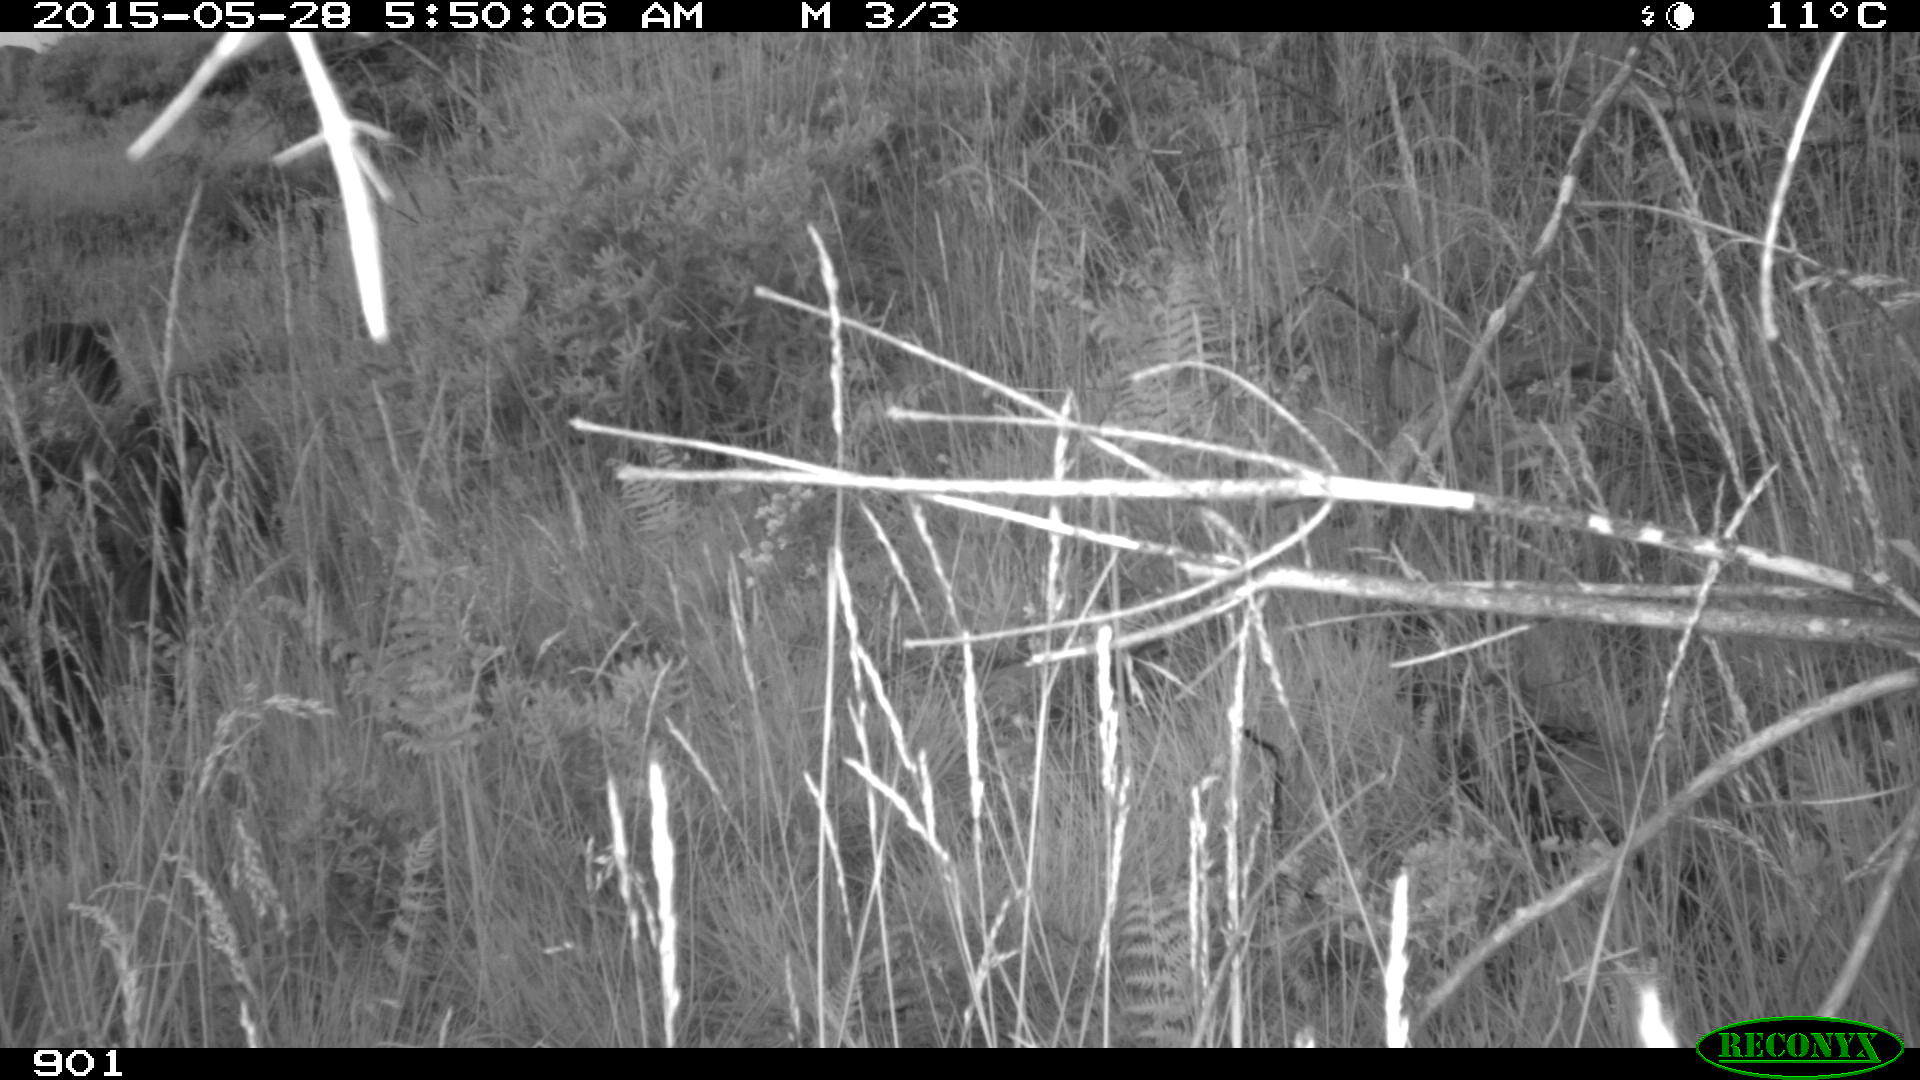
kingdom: Animalia
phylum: Chordata
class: Mammalia
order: Artiodactyla
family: Suidae
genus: Sus
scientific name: Sus scrofa
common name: Wild boar
